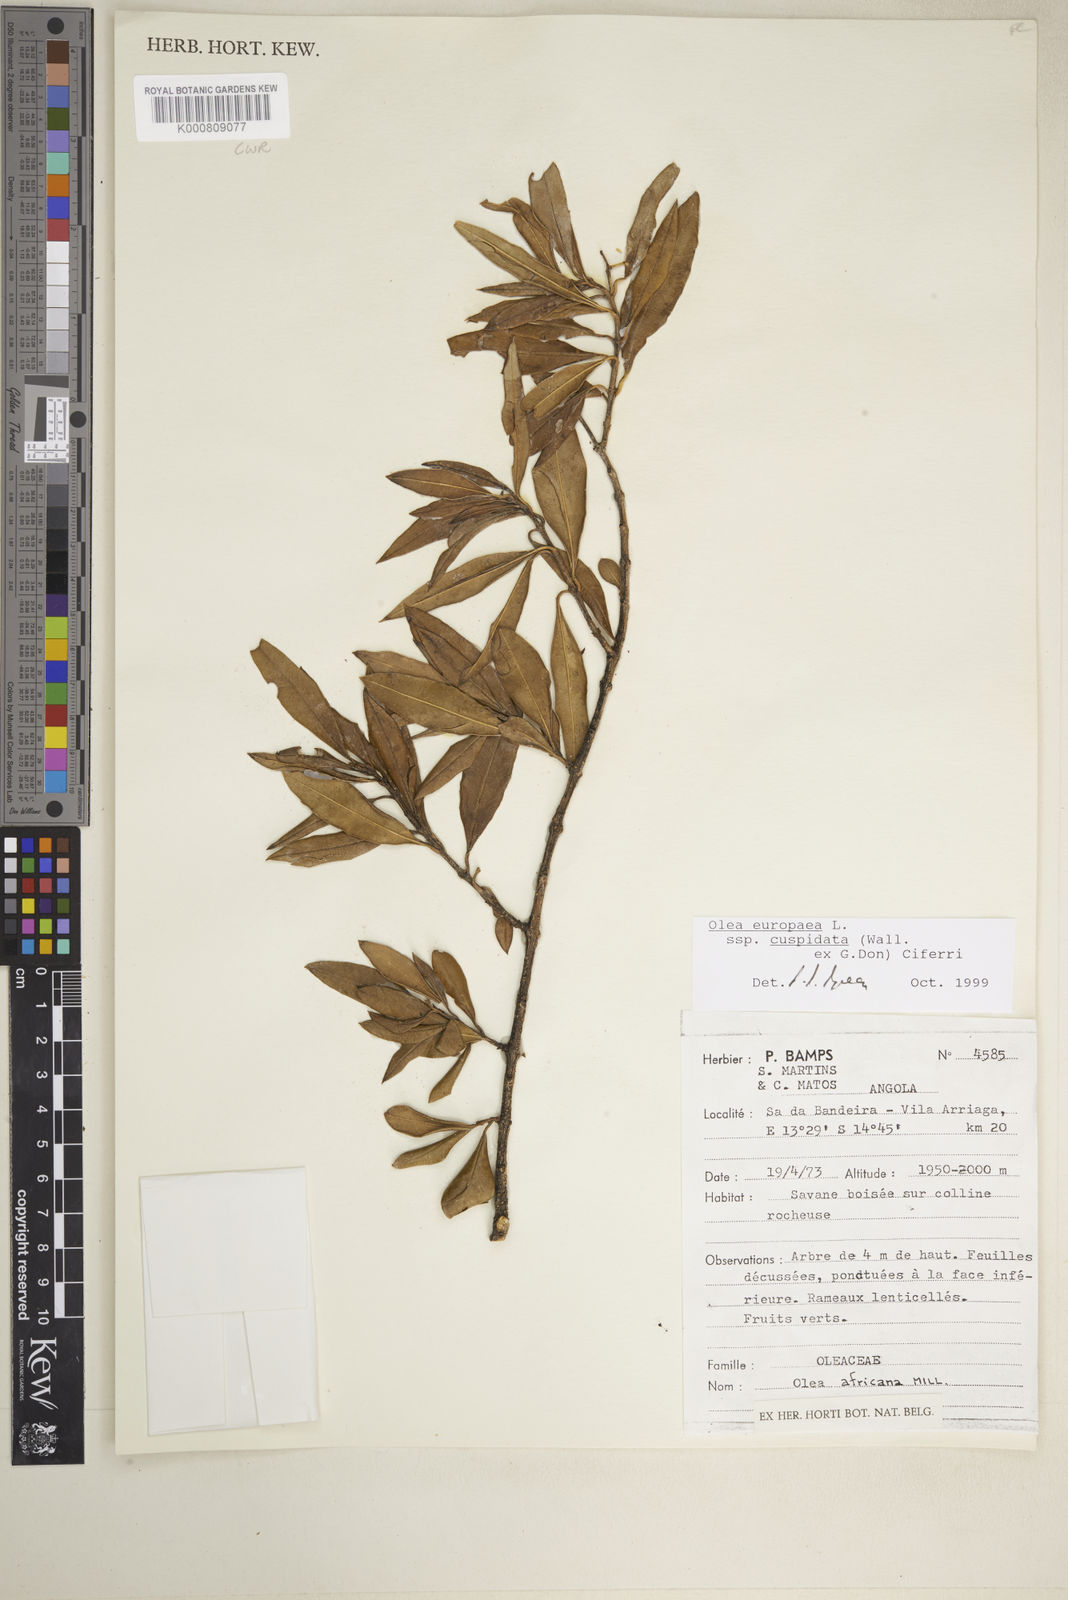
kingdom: Plantae
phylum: Tracheophyta
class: Magnoliopsida
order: Lamiales
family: Oleaceae
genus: Olea
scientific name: Olea europaea
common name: Olive
